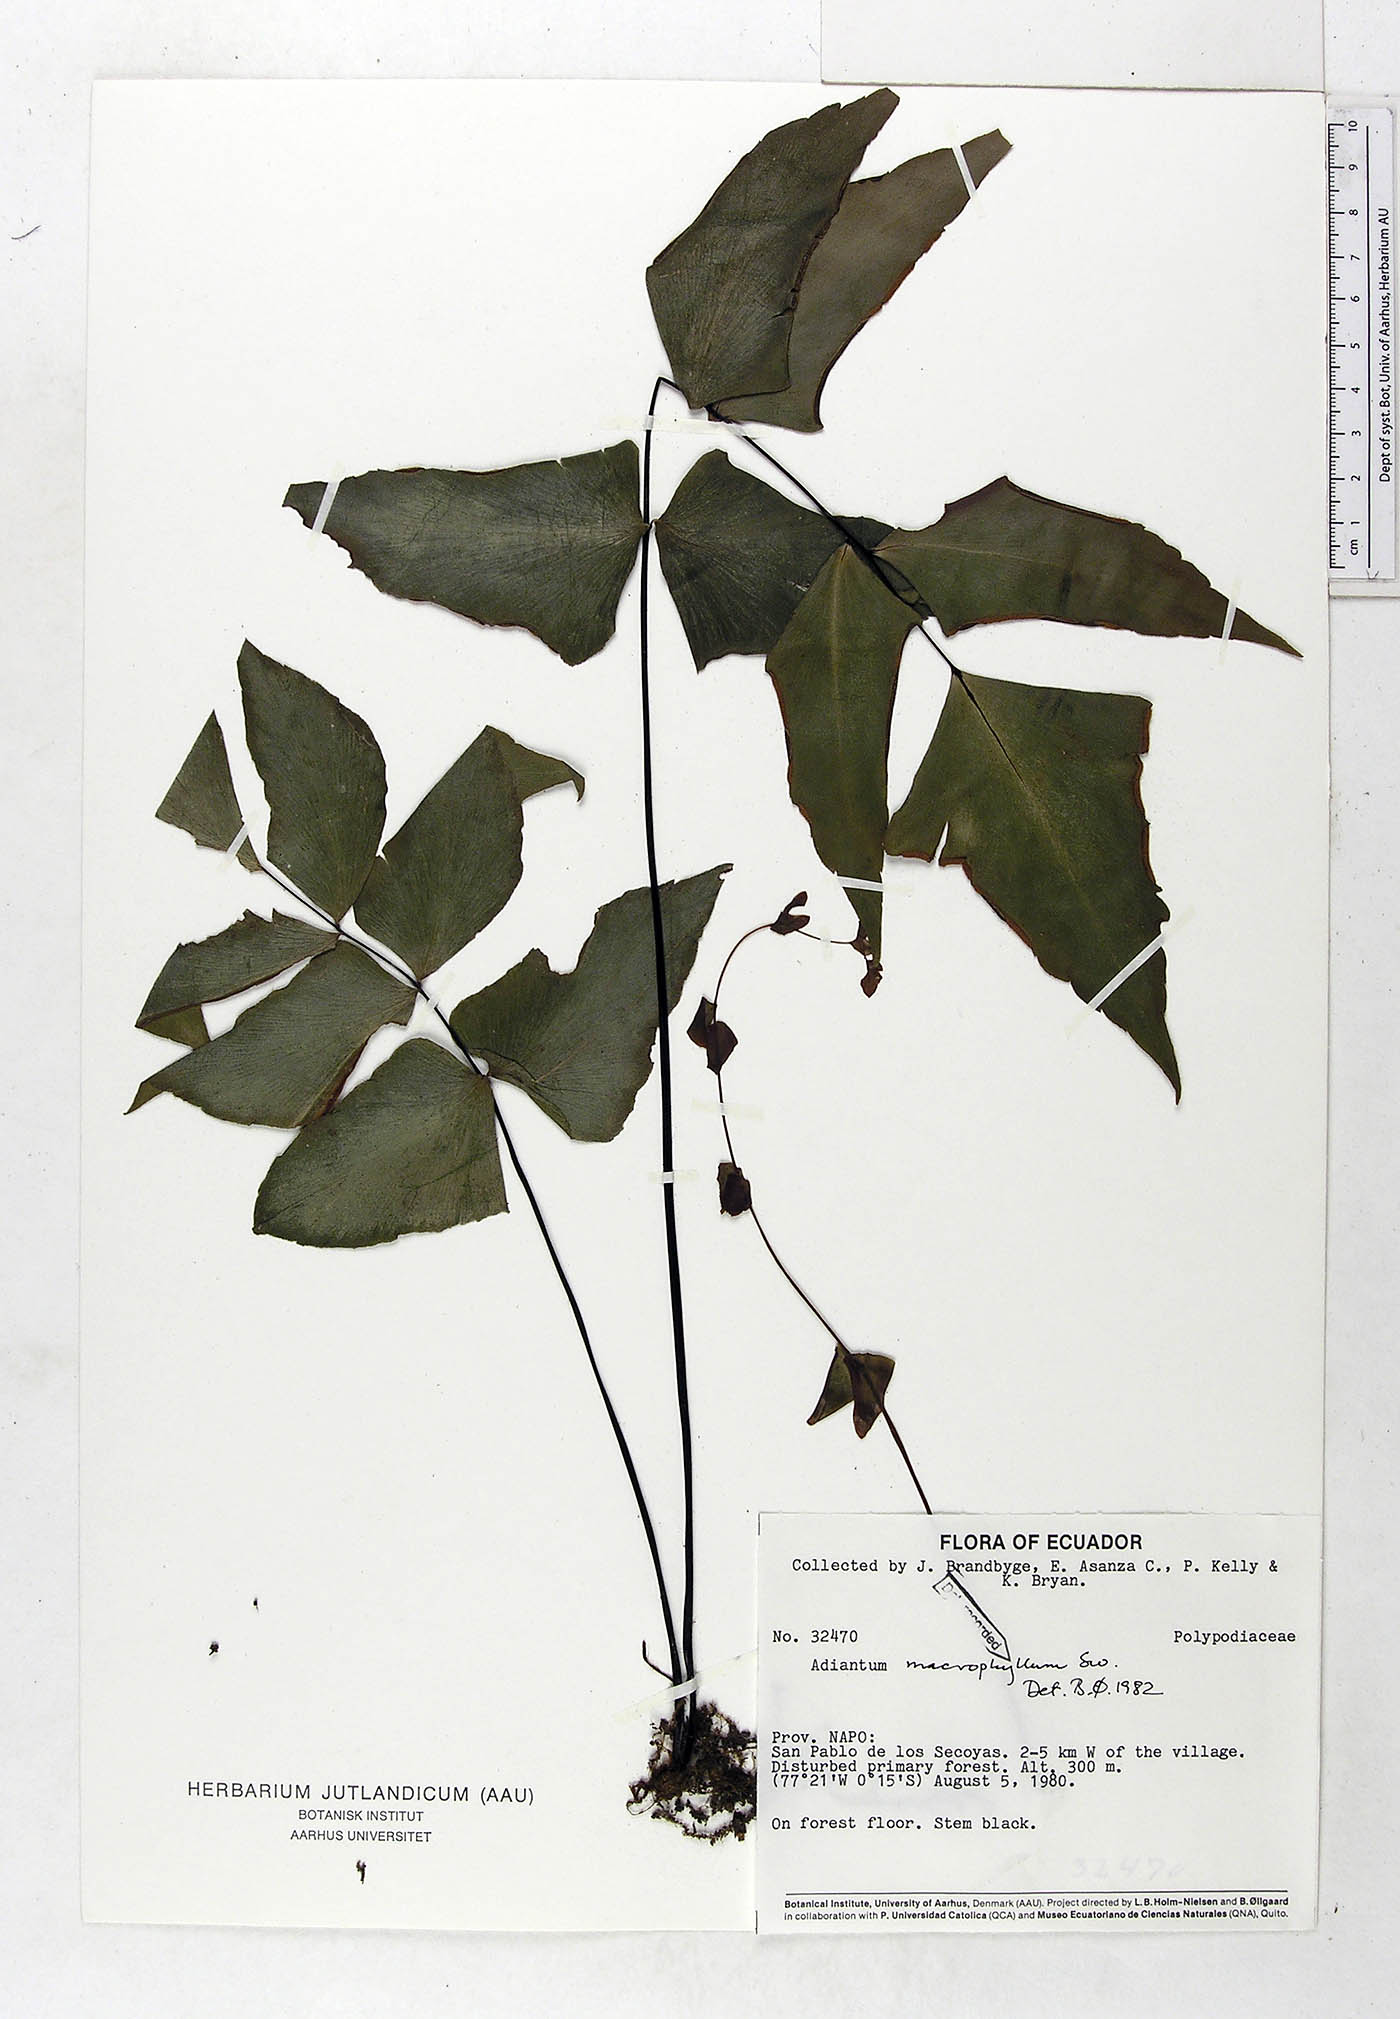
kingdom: Plantae
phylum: Tracheophyta
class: Polypodiopsida
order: Polypodiales
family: Pteridaceae
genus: Adiantum
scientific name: Adiantum macrophyllum
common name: Largeleaf maidenhair
